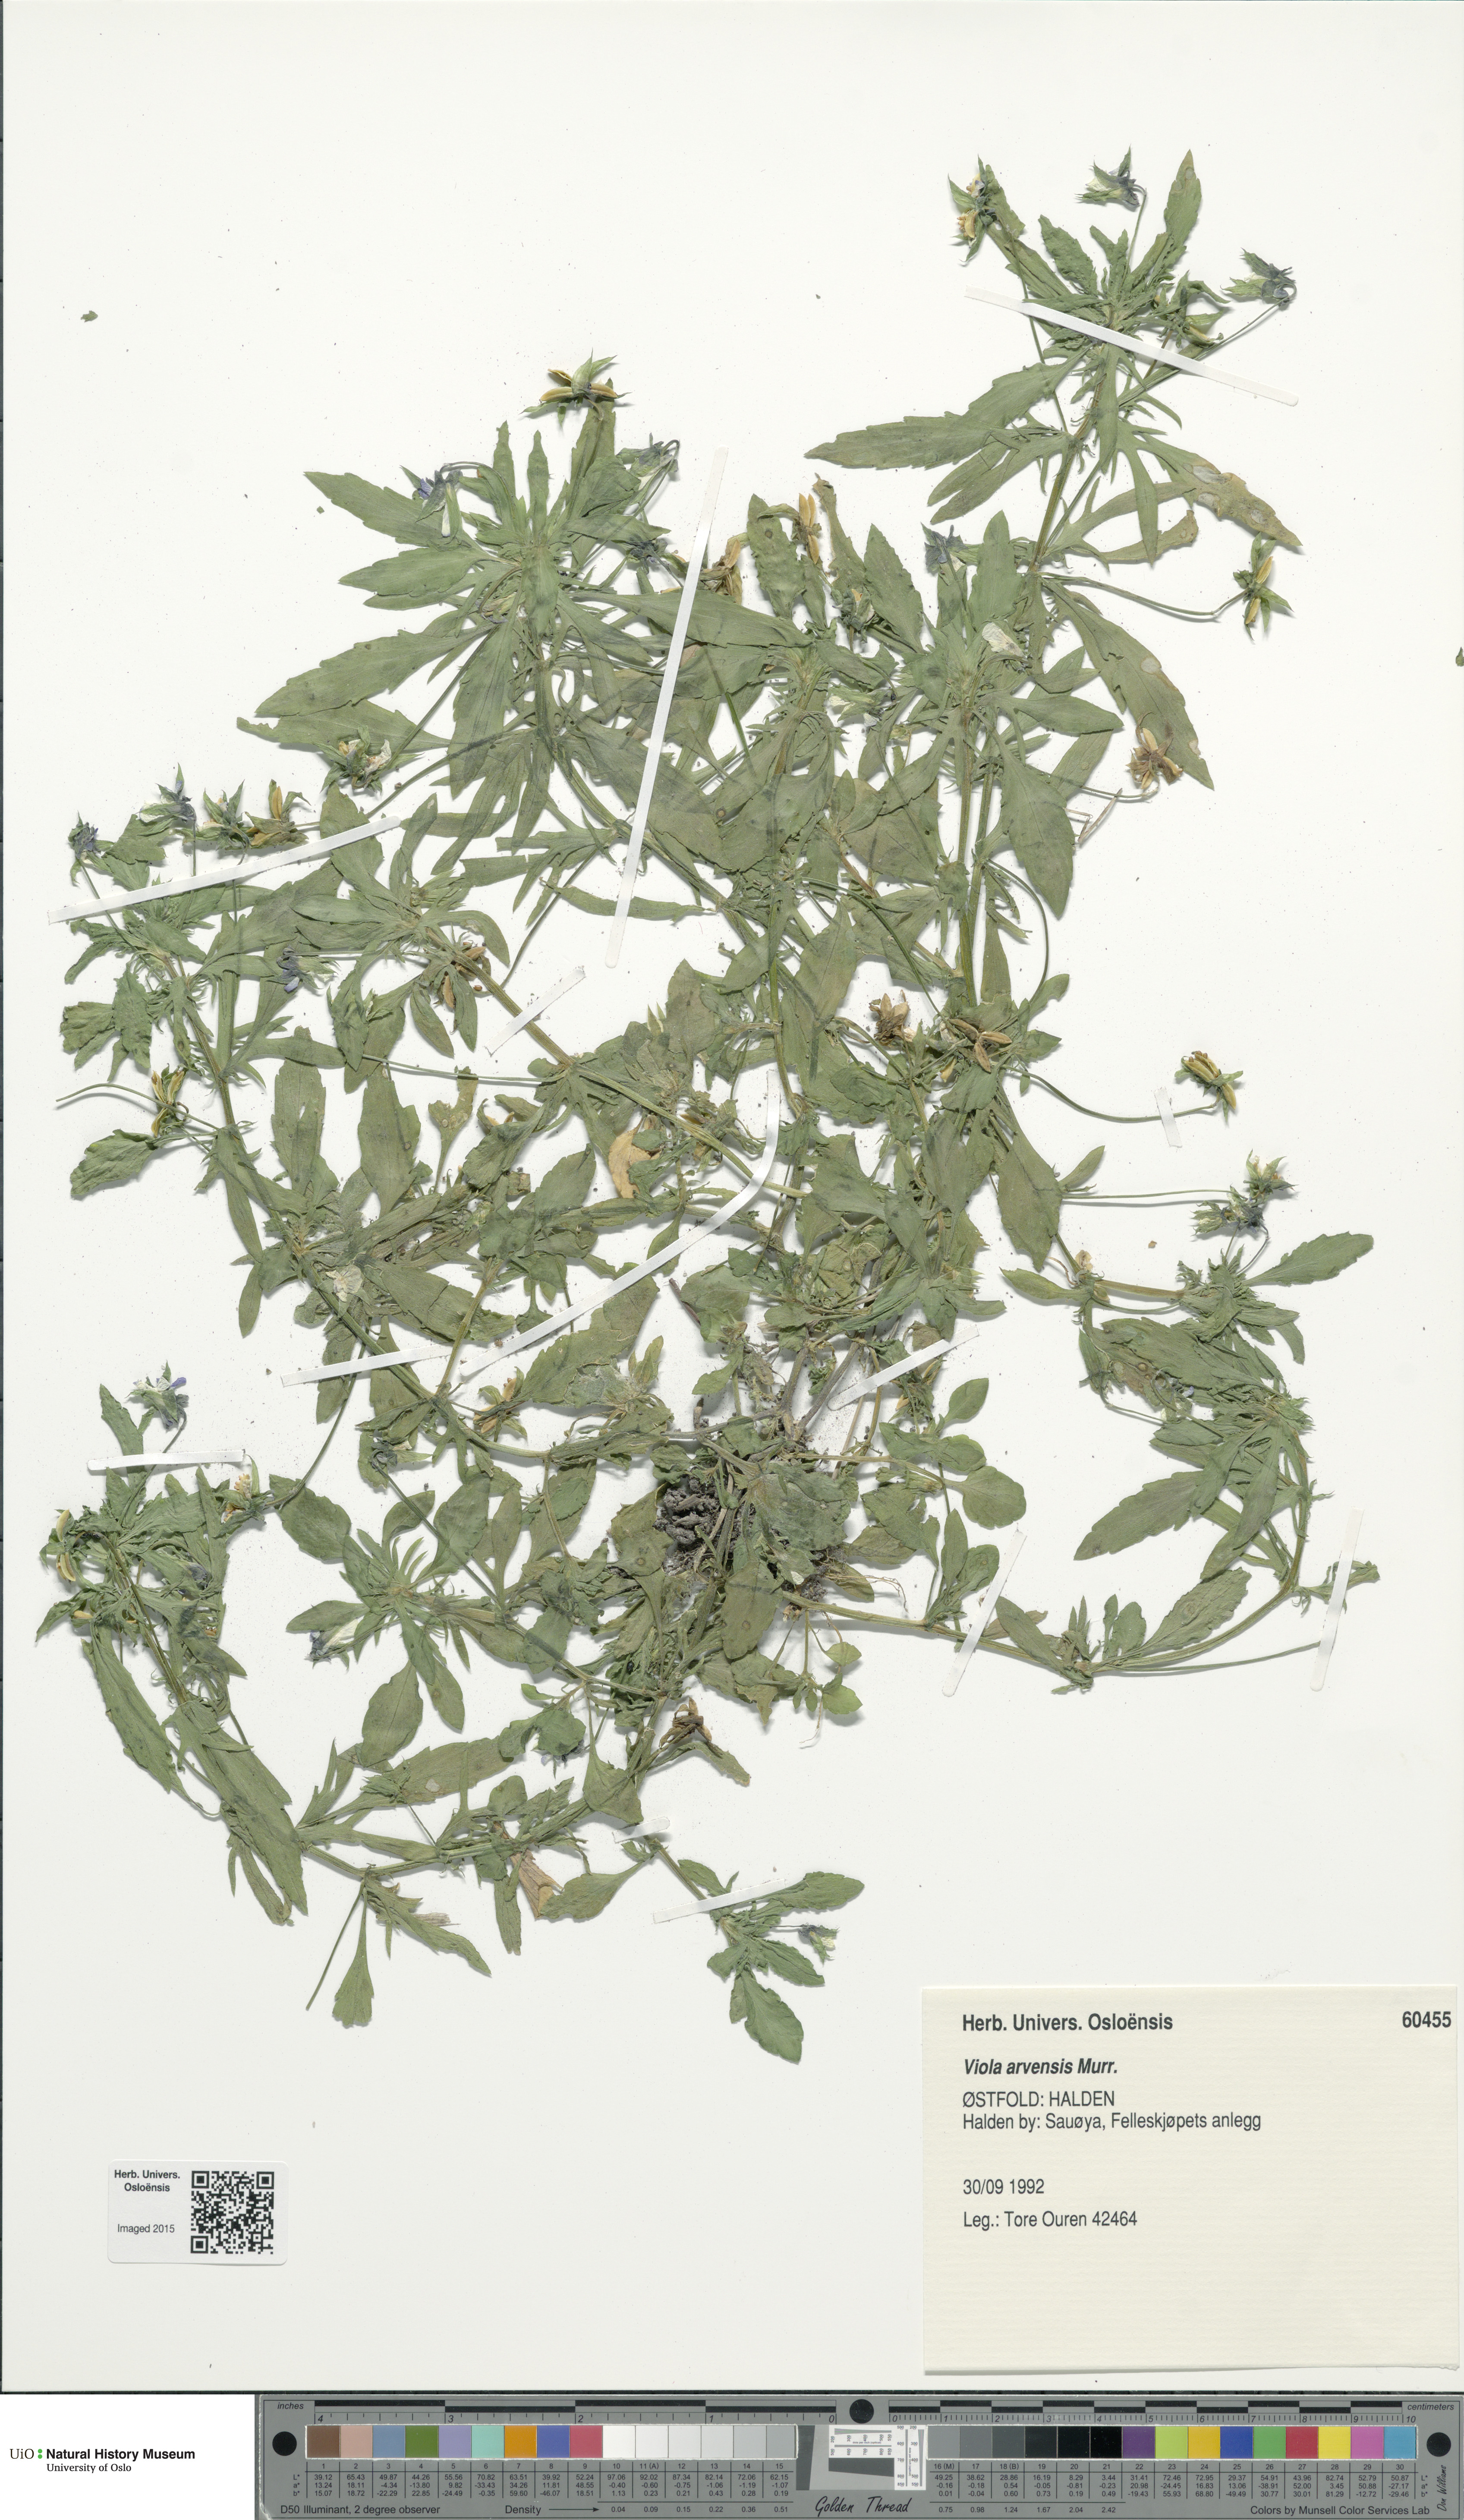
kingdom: Plantae
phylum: Tracheophyta
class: Magnoliopsida
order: Malpighiales
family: Violaceae
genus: Viola
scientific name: Viola arvensis
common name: Field pansy
